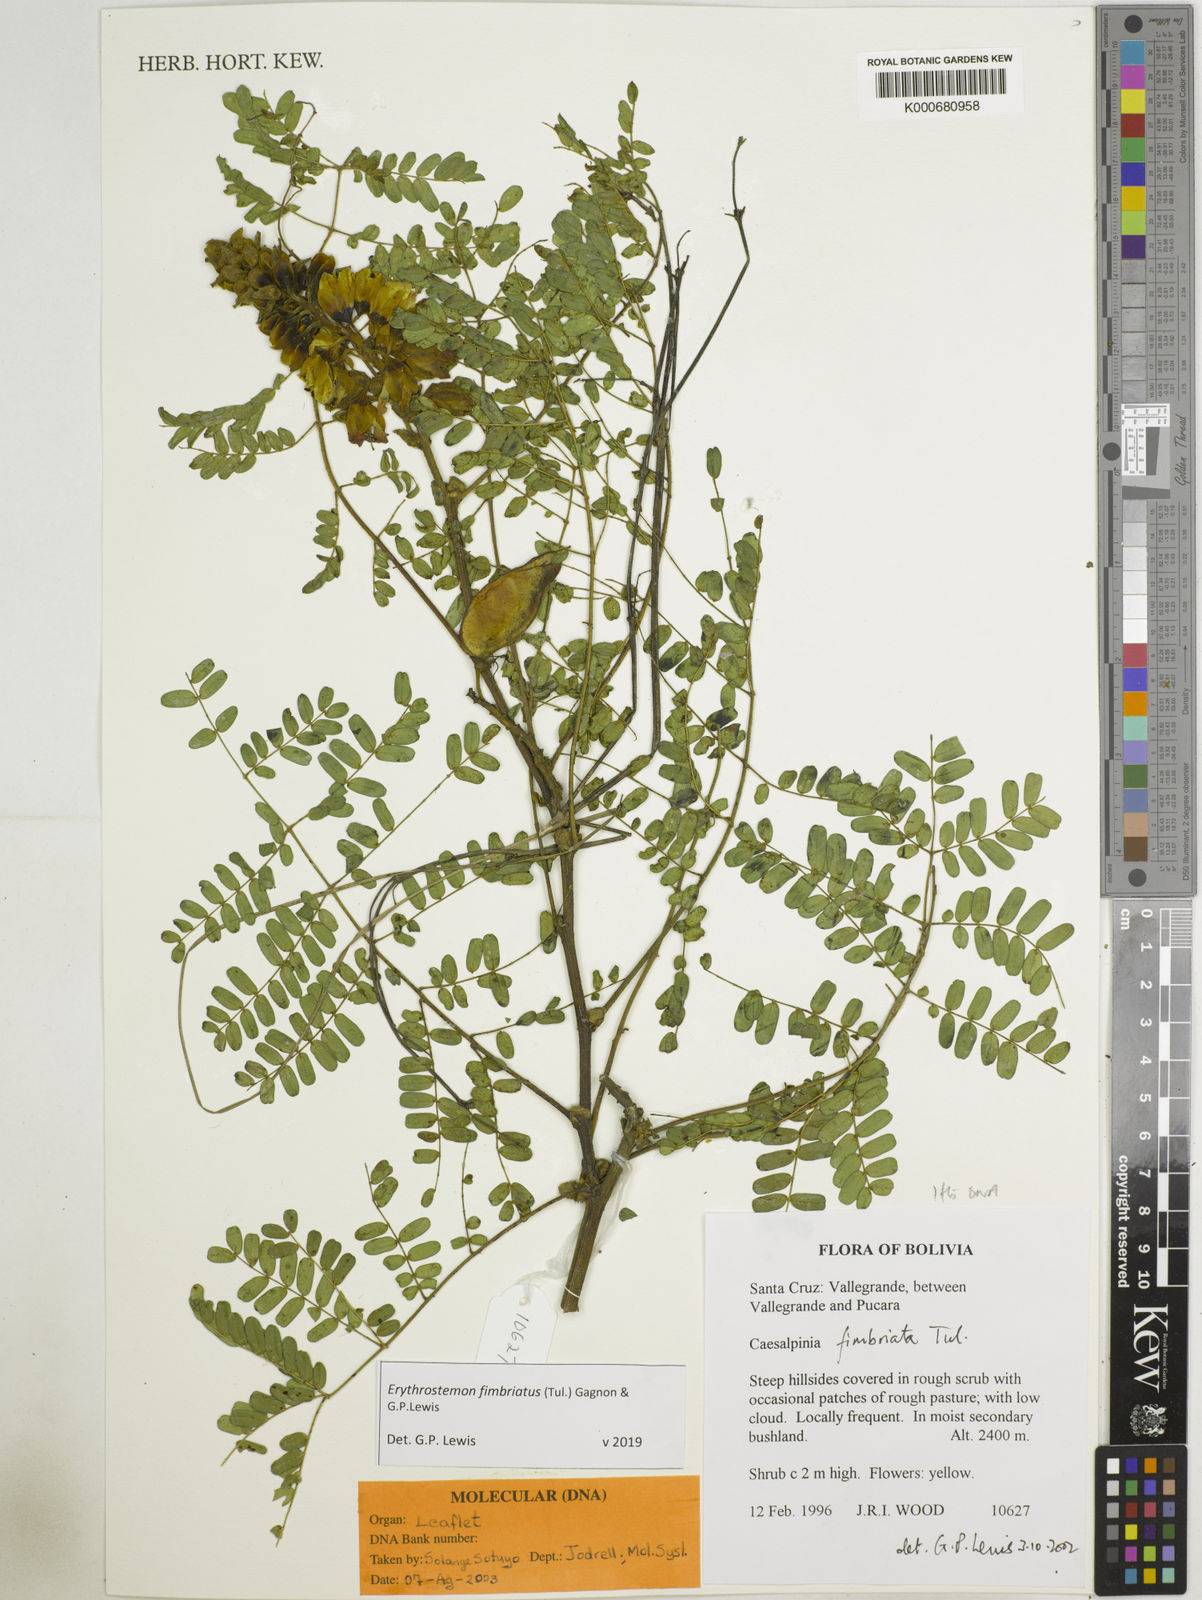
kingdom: Plantae
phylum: Tracheophyta
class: Magnoliopsida
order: Fabales
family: Fabaceae
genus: Erythrostemon
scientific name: Erythrostemon fimbriatus
